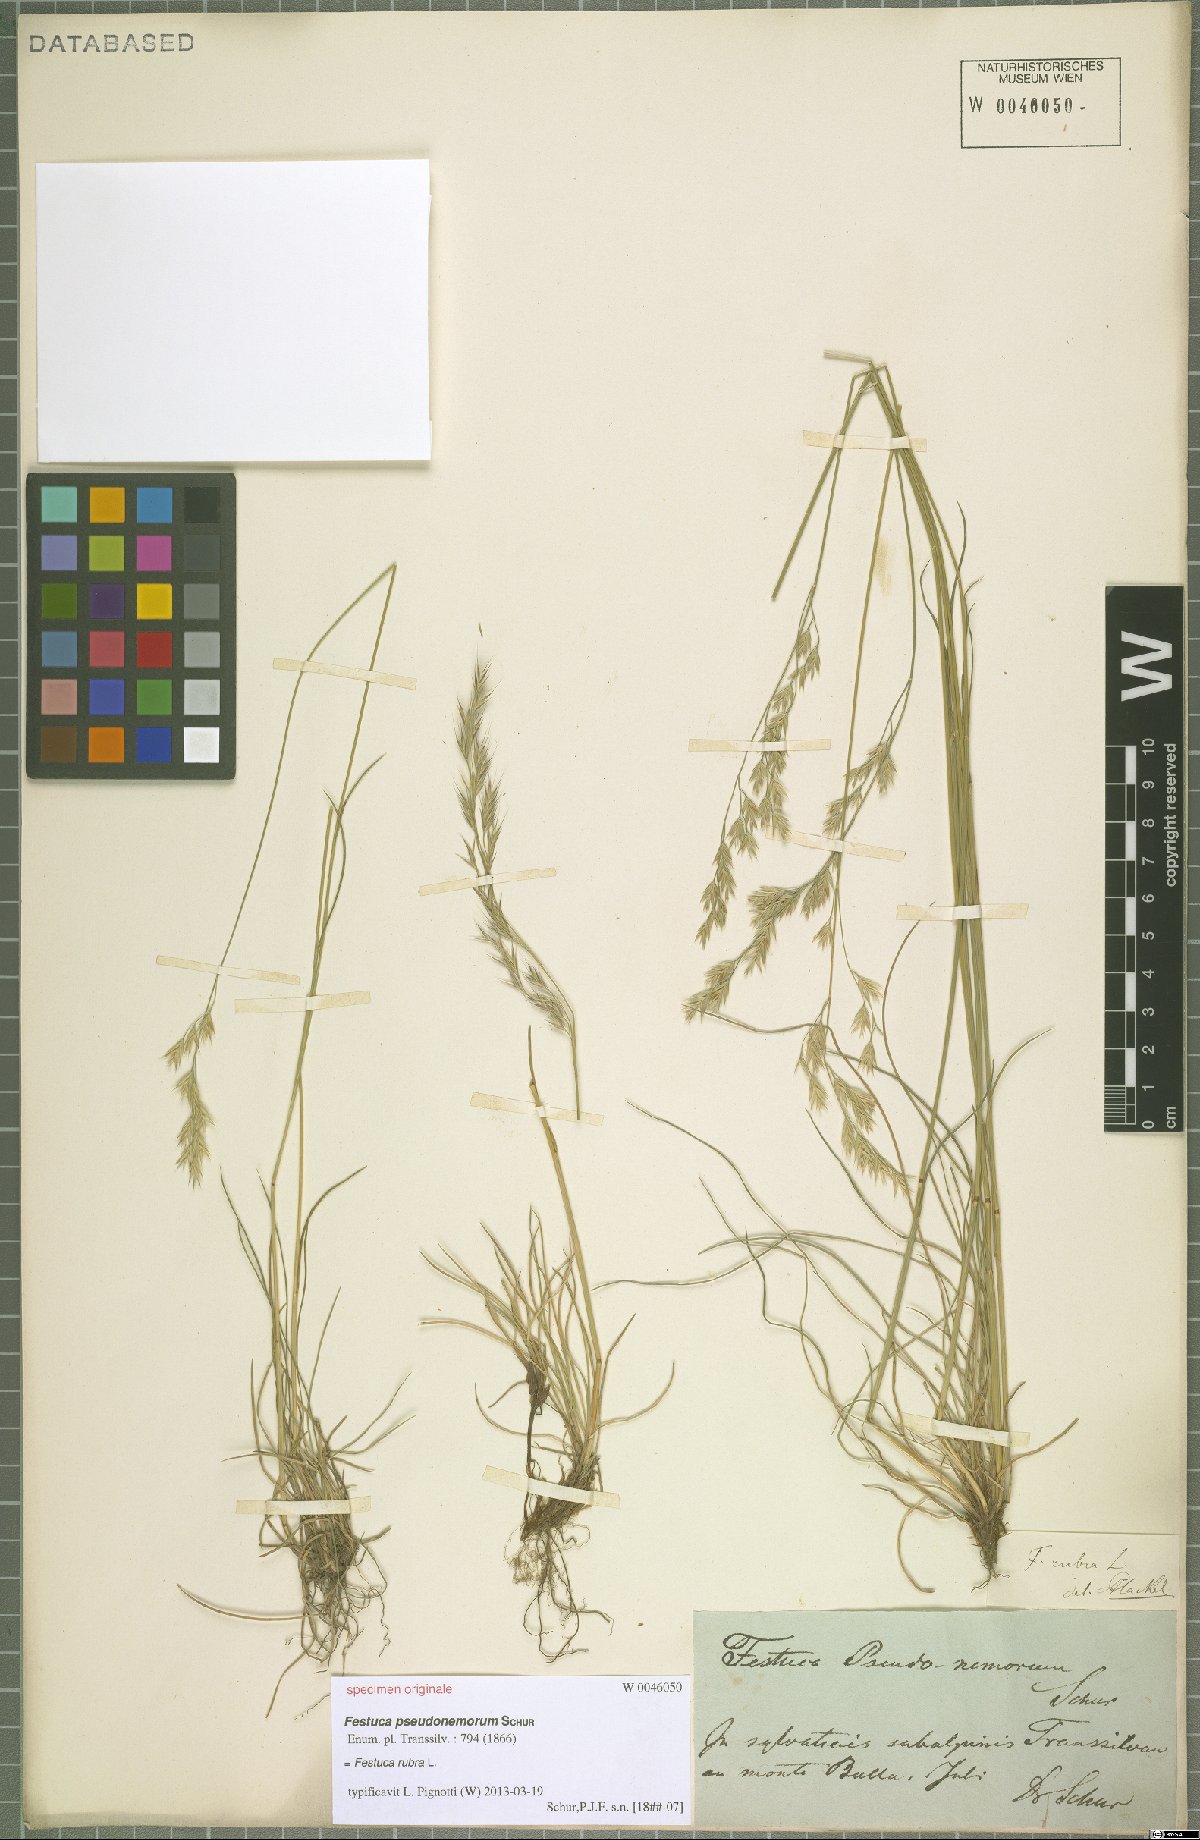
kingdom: Plantae
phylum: Tracheophyta
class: Liliopsida
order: Poales
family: Poaceae
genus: Festuca
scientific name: Festuca rubra
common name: Red fescue
